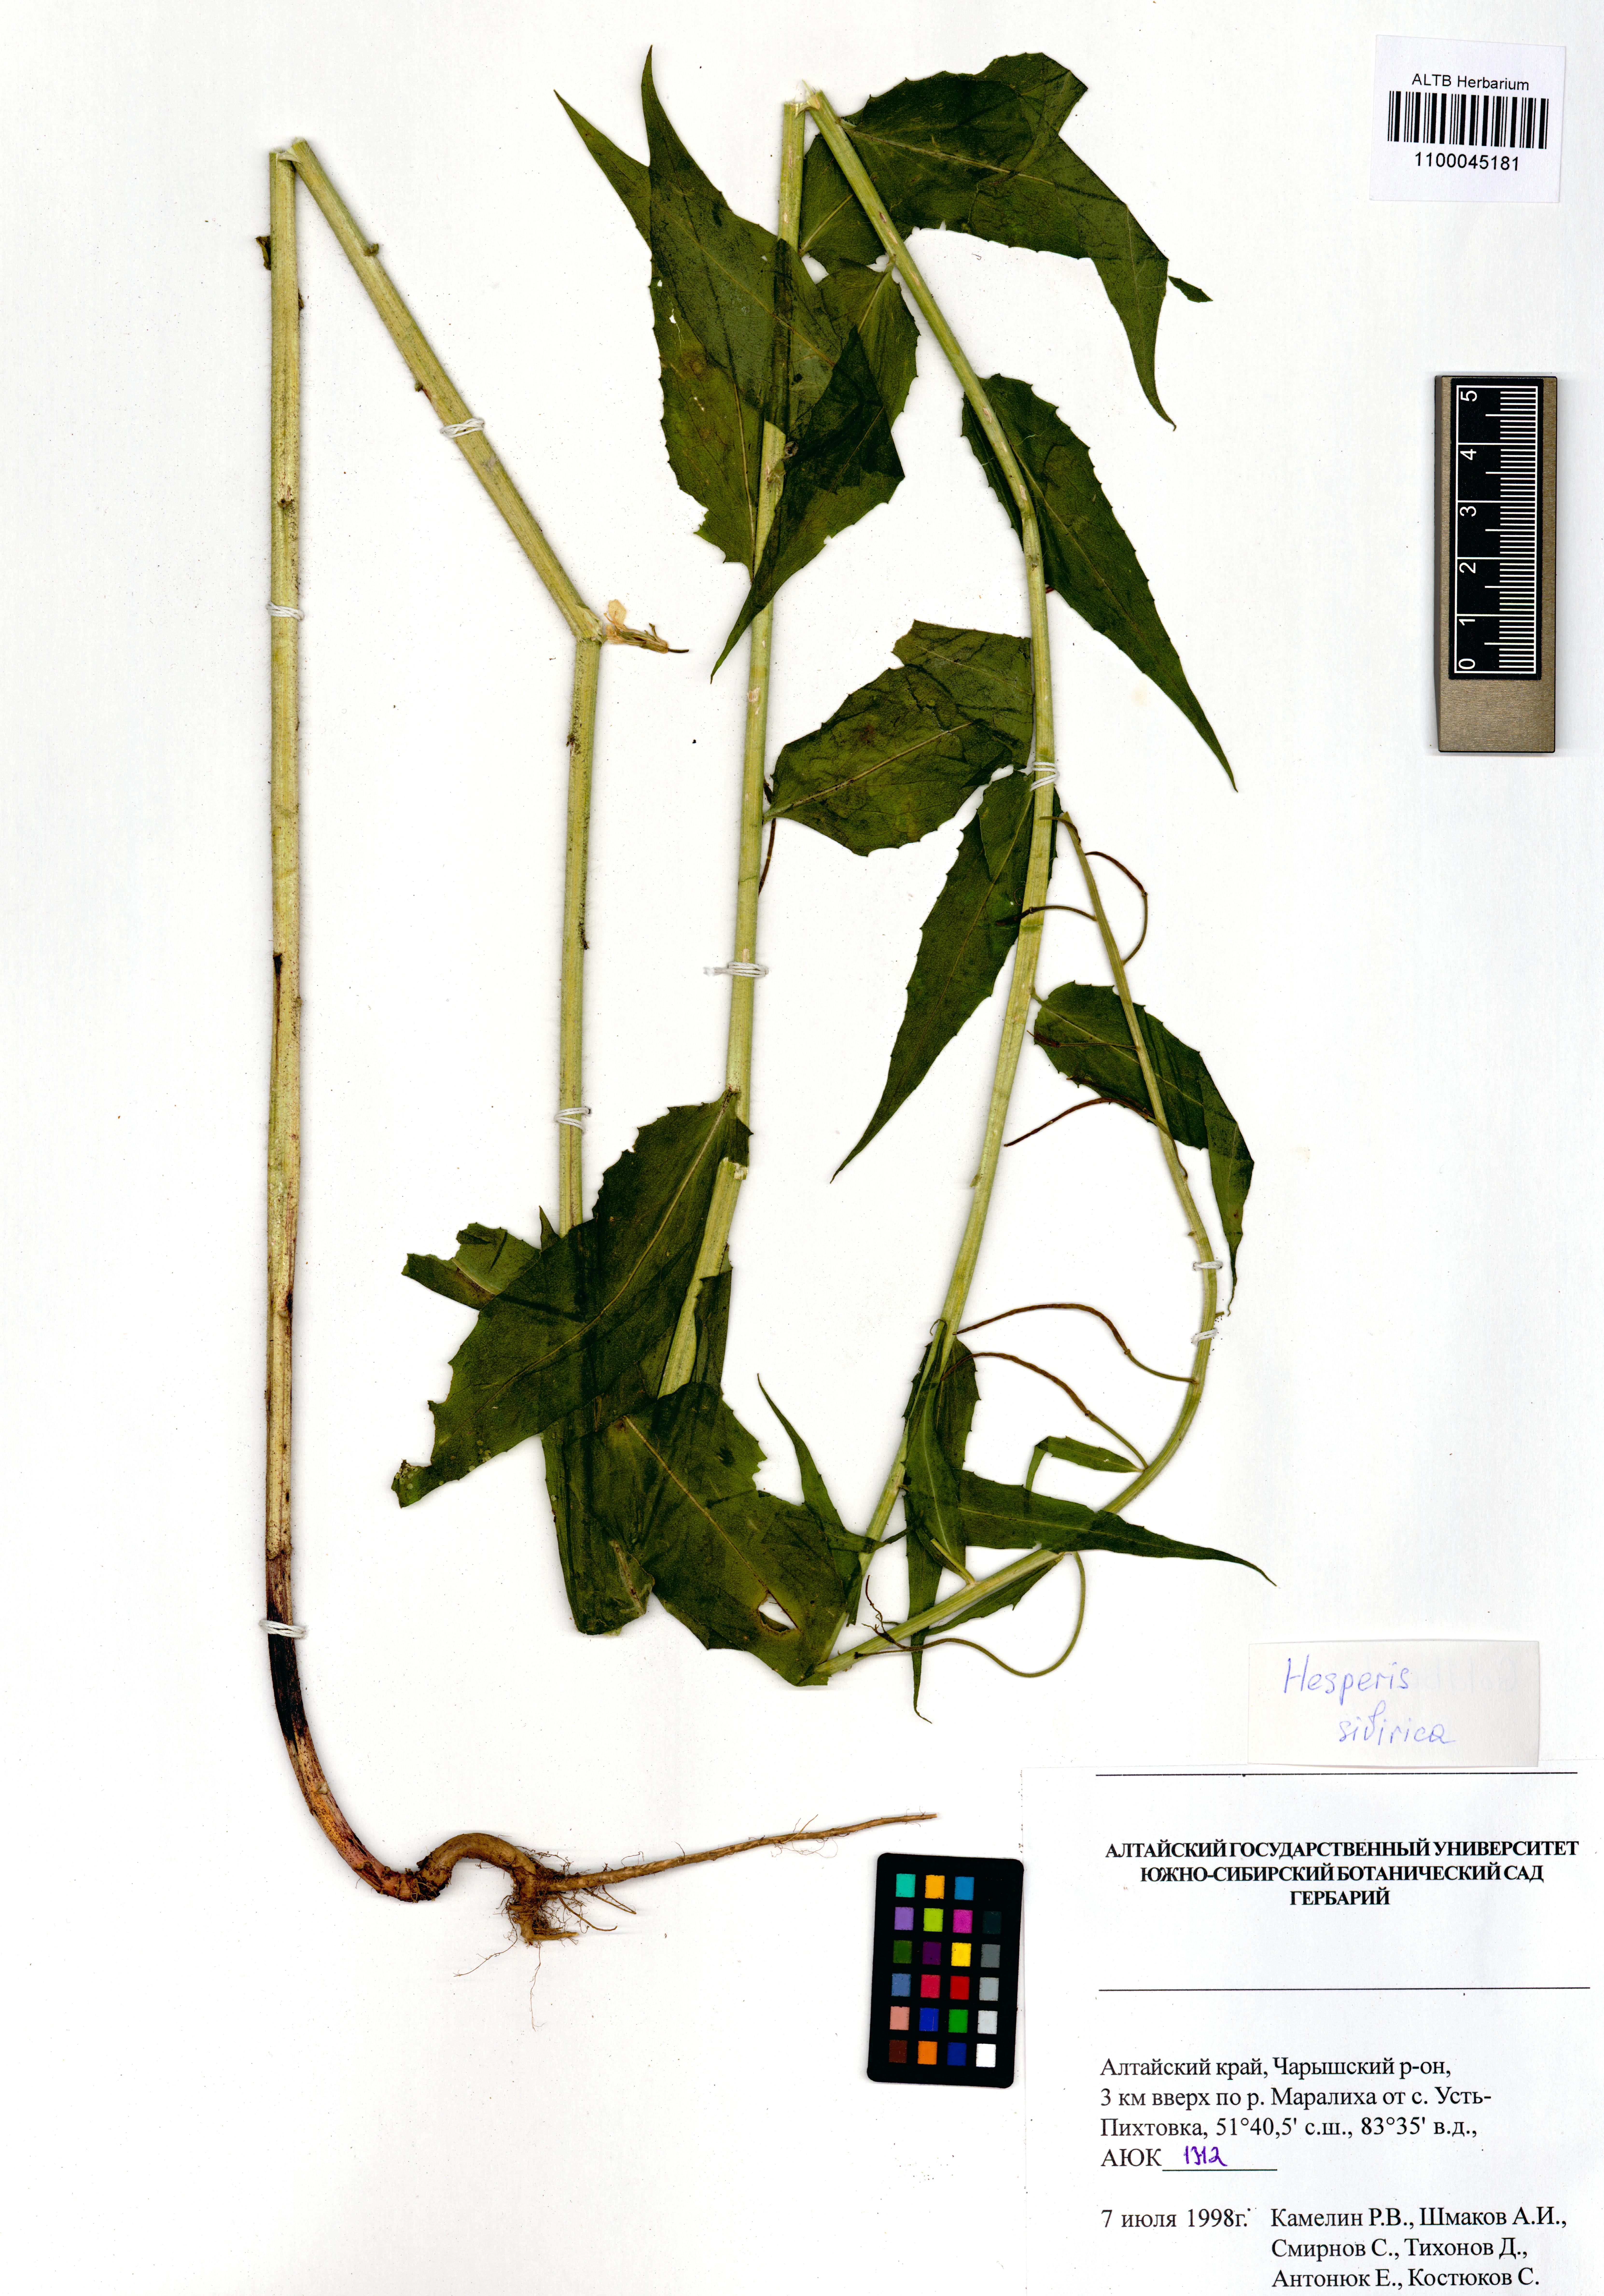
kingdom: Plantae
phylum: Tracheophyta
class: Magnoliopsida
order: Brassicales
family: Brassicaceae
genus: Hesperis
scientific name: Hesperis sibirica
